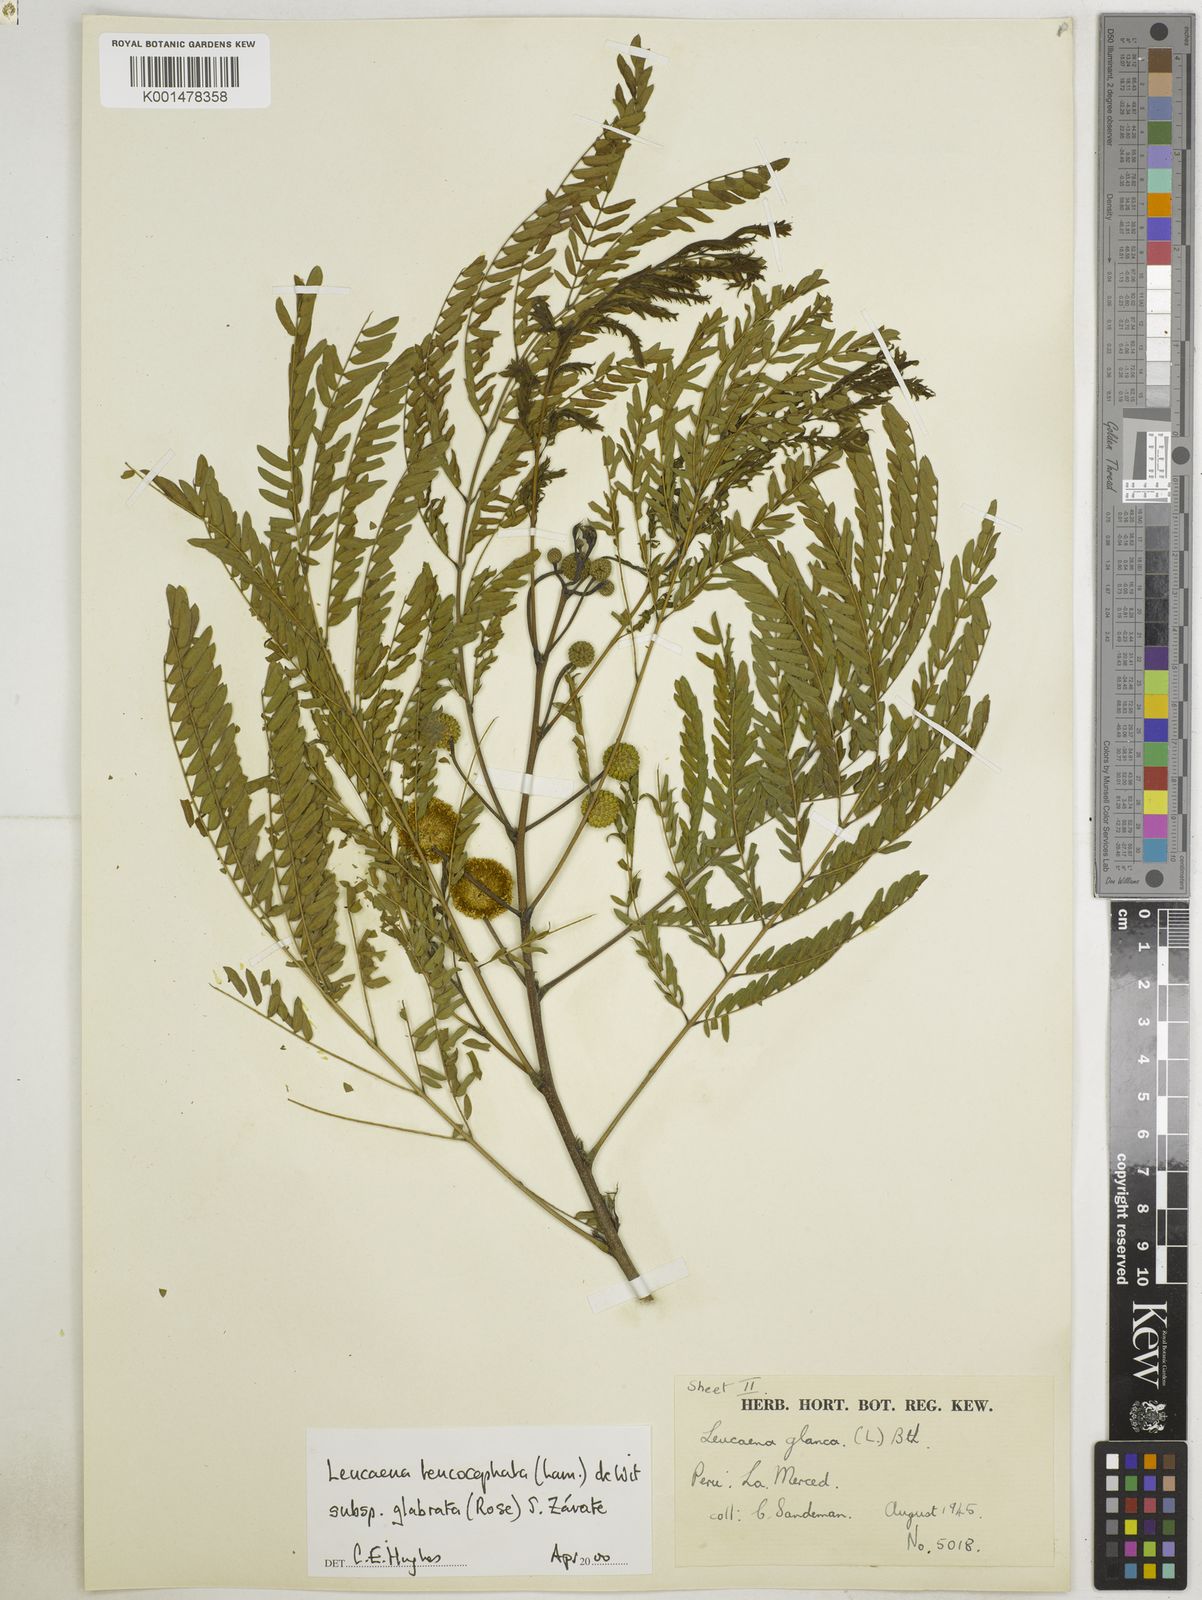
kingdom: Plantae
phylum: Tracheophyta
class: Magnoliopsida
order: Fabales
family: Fabaceae
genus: Leucaena
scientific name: Leucaena leucocephala
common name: White leadtree
